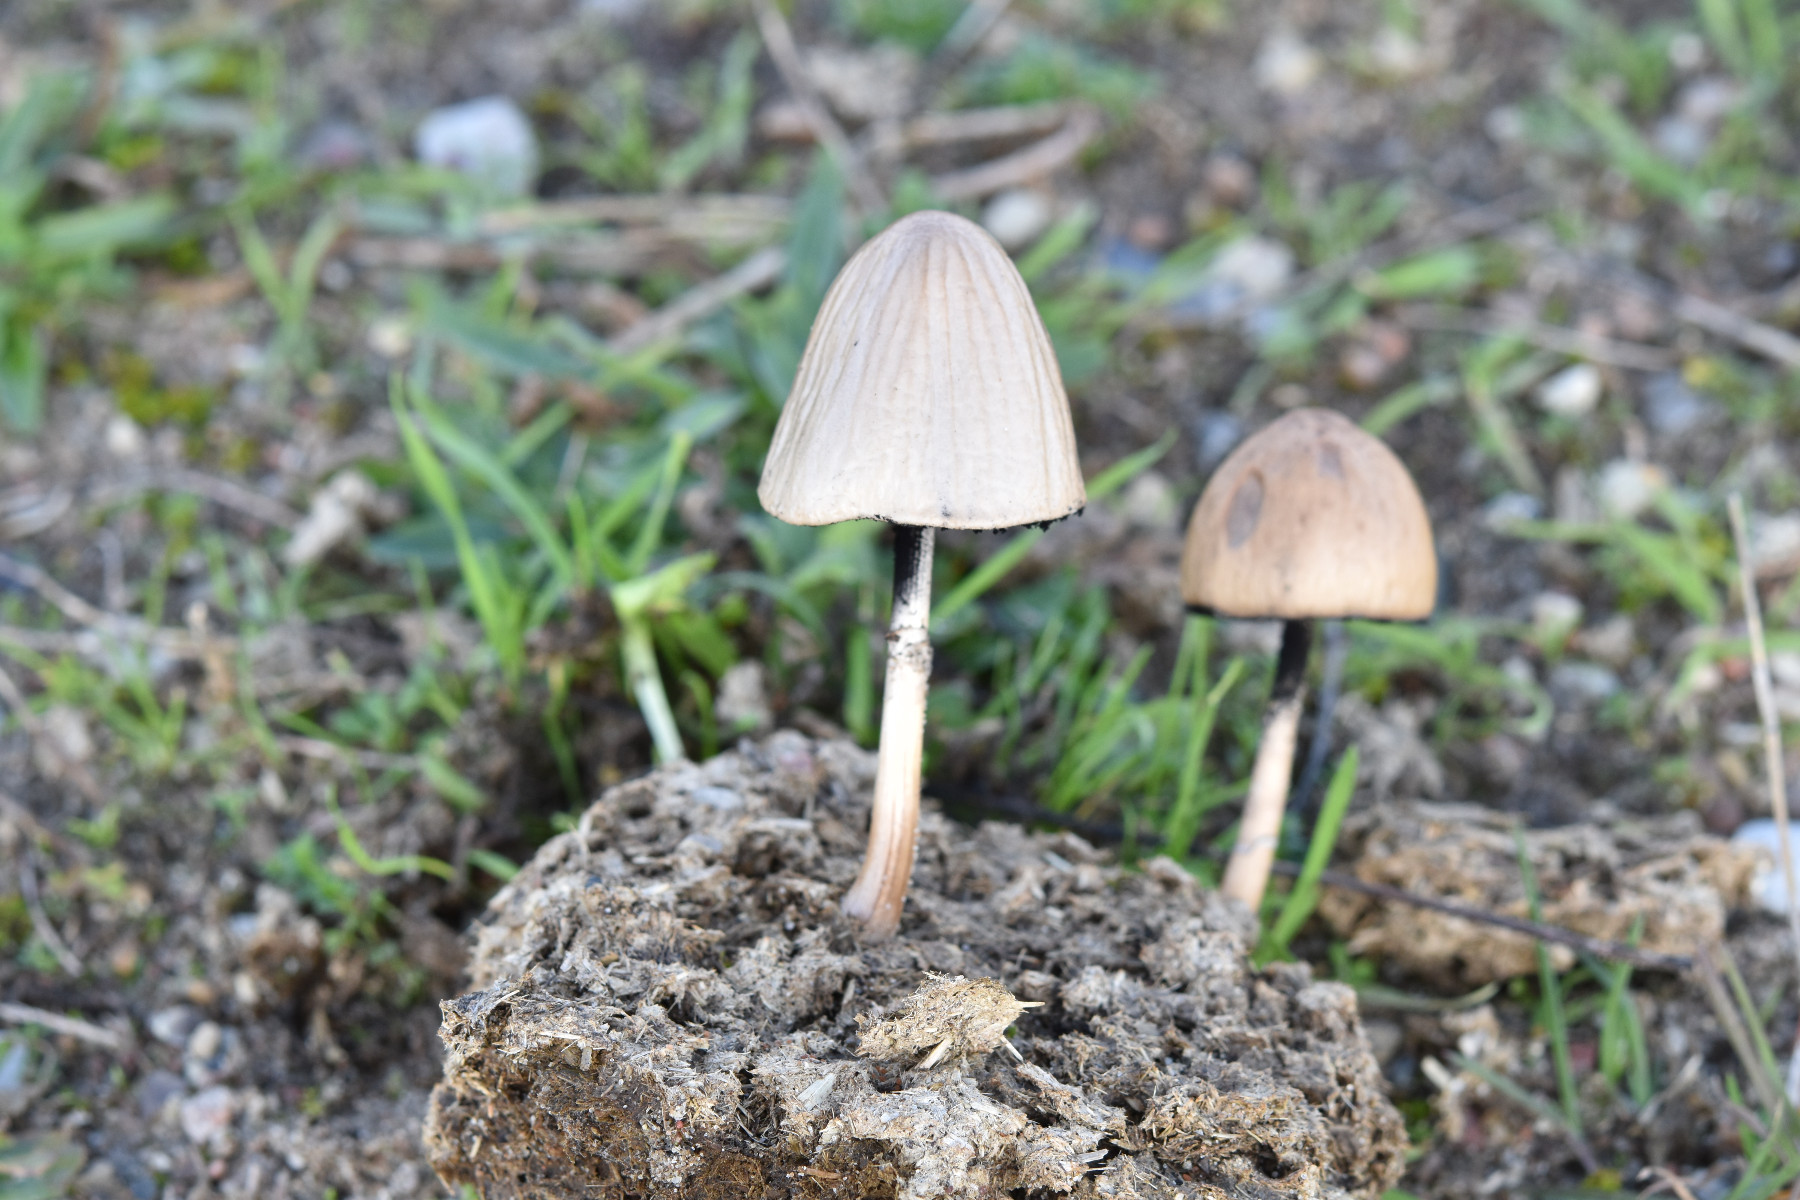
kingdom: Fungi
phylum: Basidiomycota
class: Agaricomycetes
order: Agaricales
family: Bolbitiaceae
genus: Panaeolus
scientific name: Panaeolus semiovatus
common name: ring-glanshat
